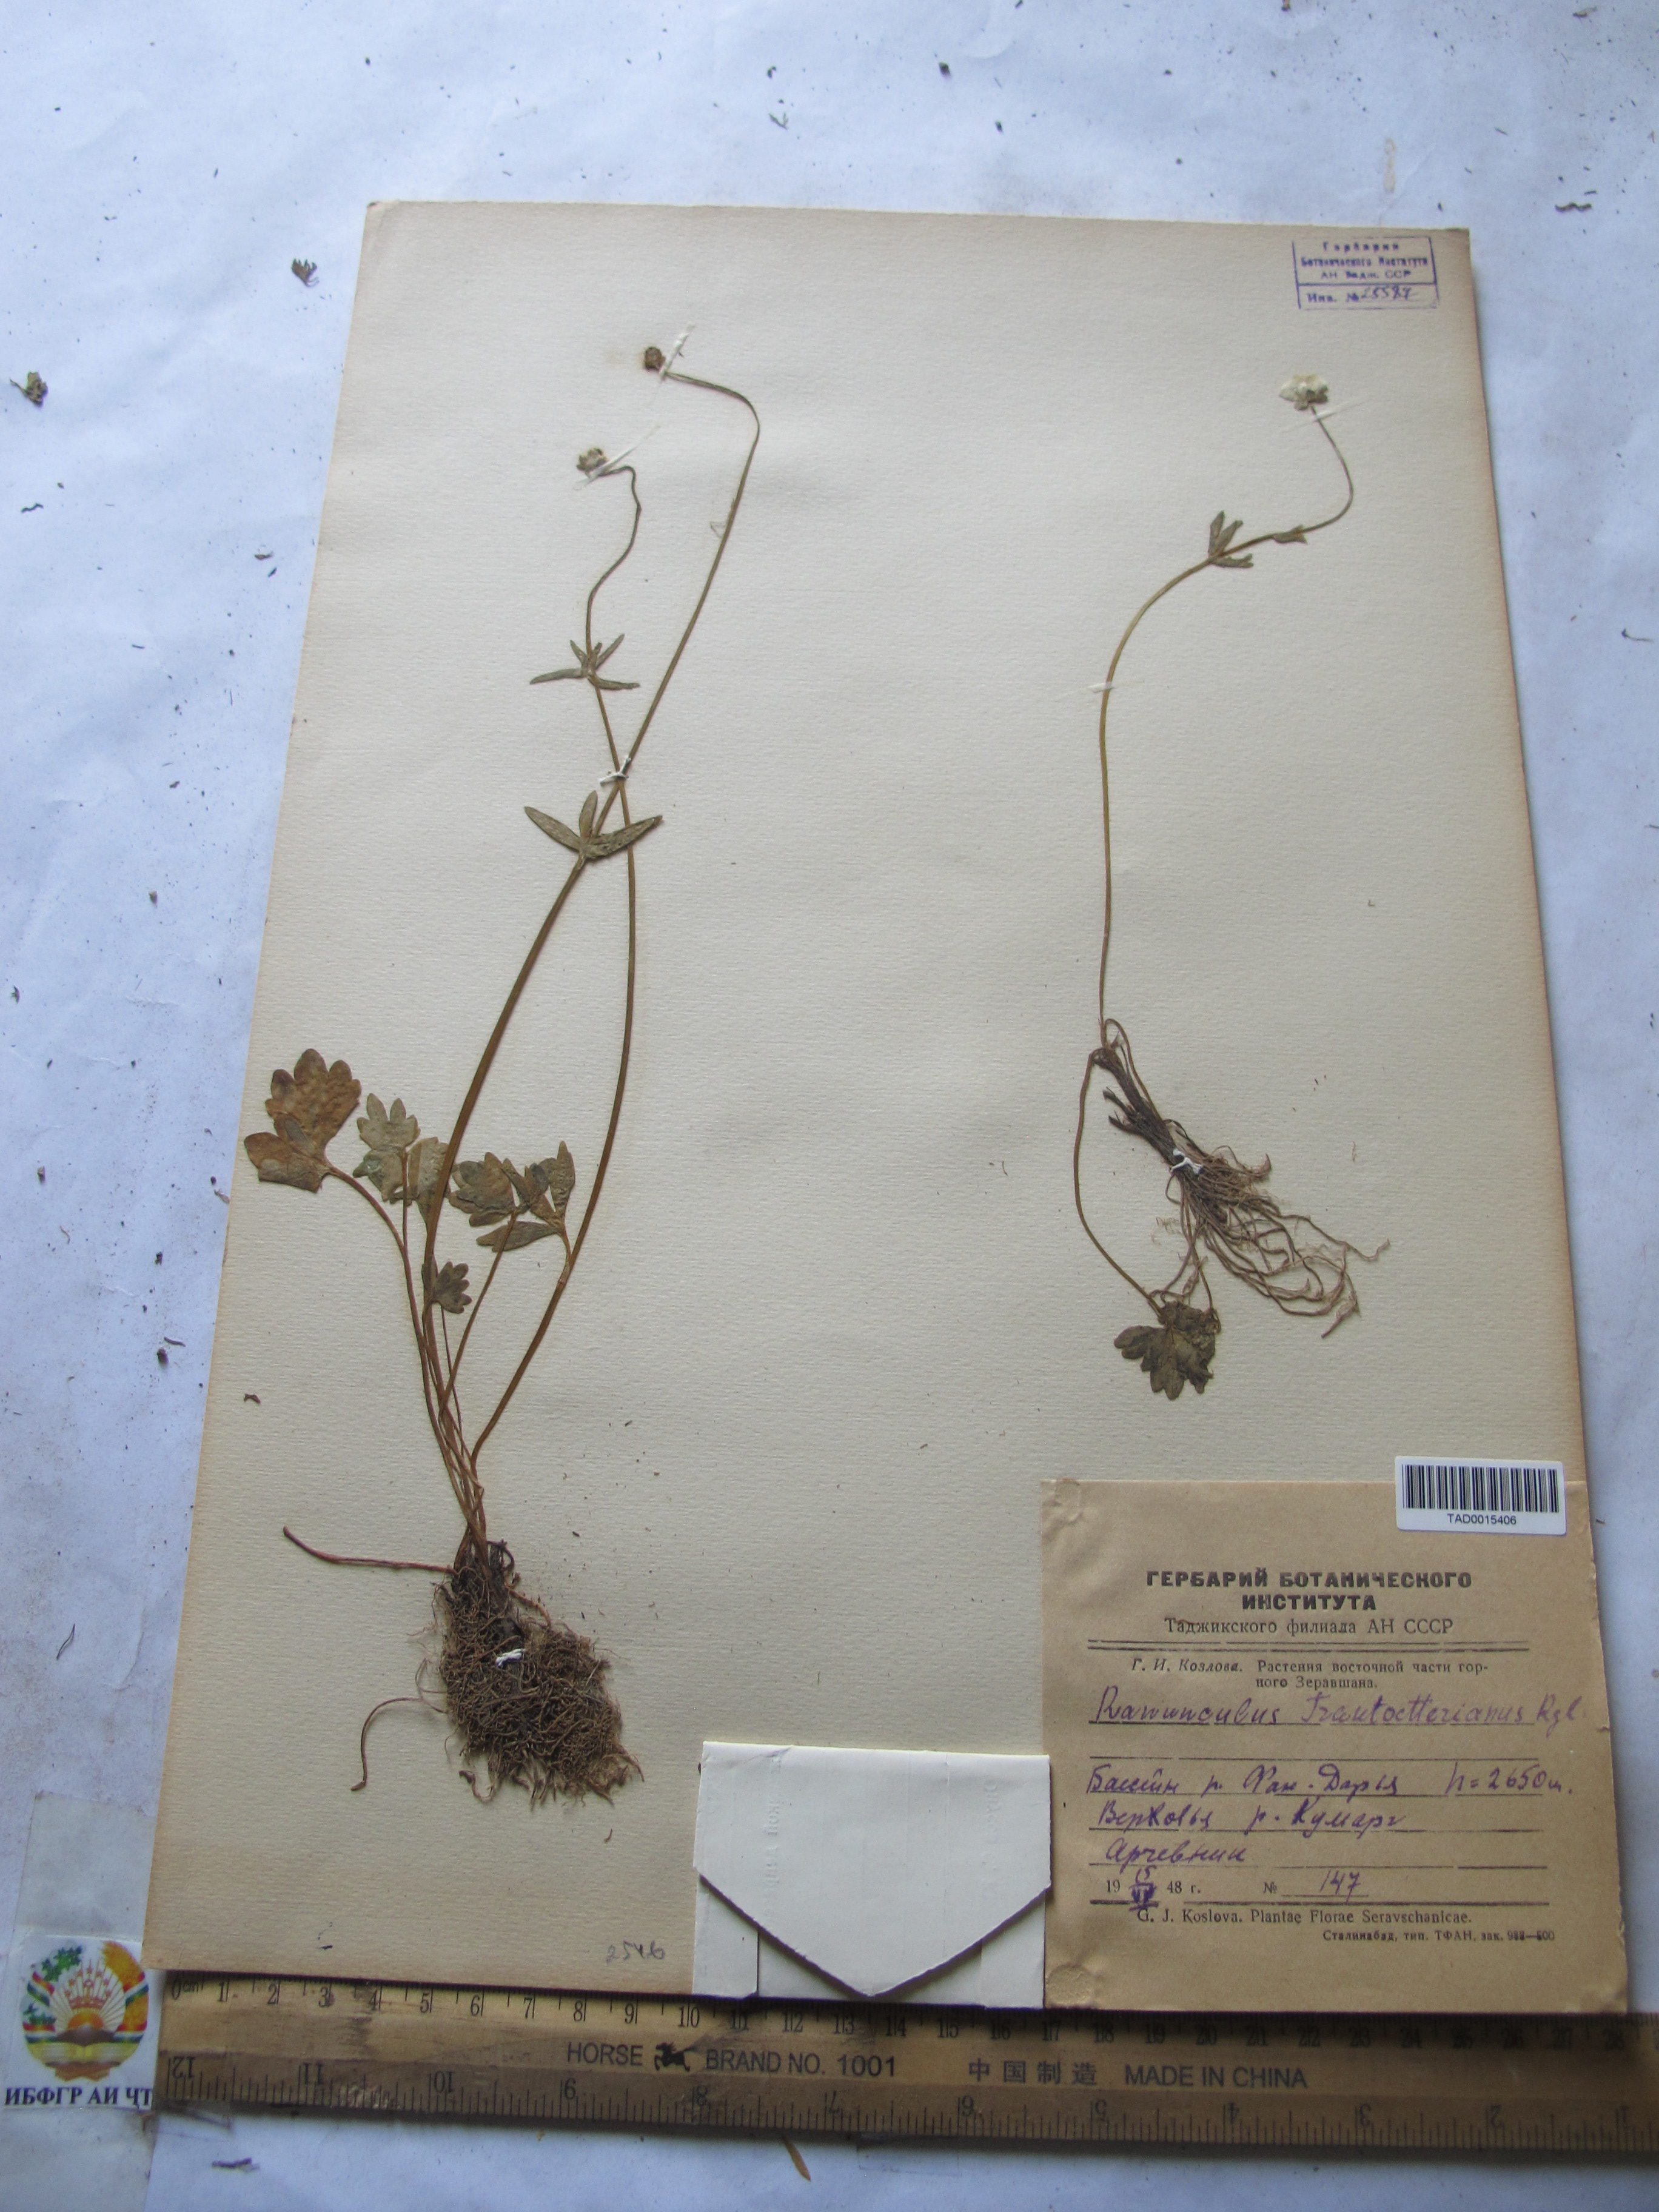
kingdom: Plantae
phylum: Tracheophyta
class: Magnoliopsida
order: Ranunculales
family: Ranunculaceae
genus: Ranunculus
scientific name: Ranunculus songaricus
